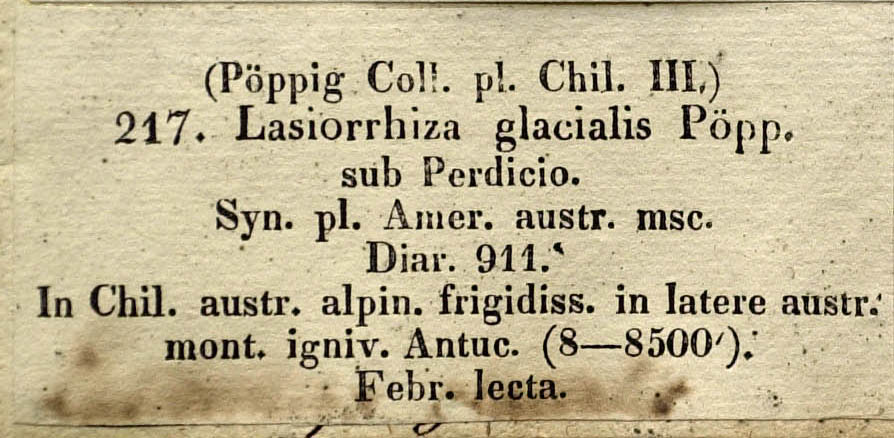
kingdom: Plantae
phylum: Tracheophyta
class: Magnoliopsida
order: Asterales
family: Asteraceae
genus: Leucheria
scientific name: Leucheria glacialis
